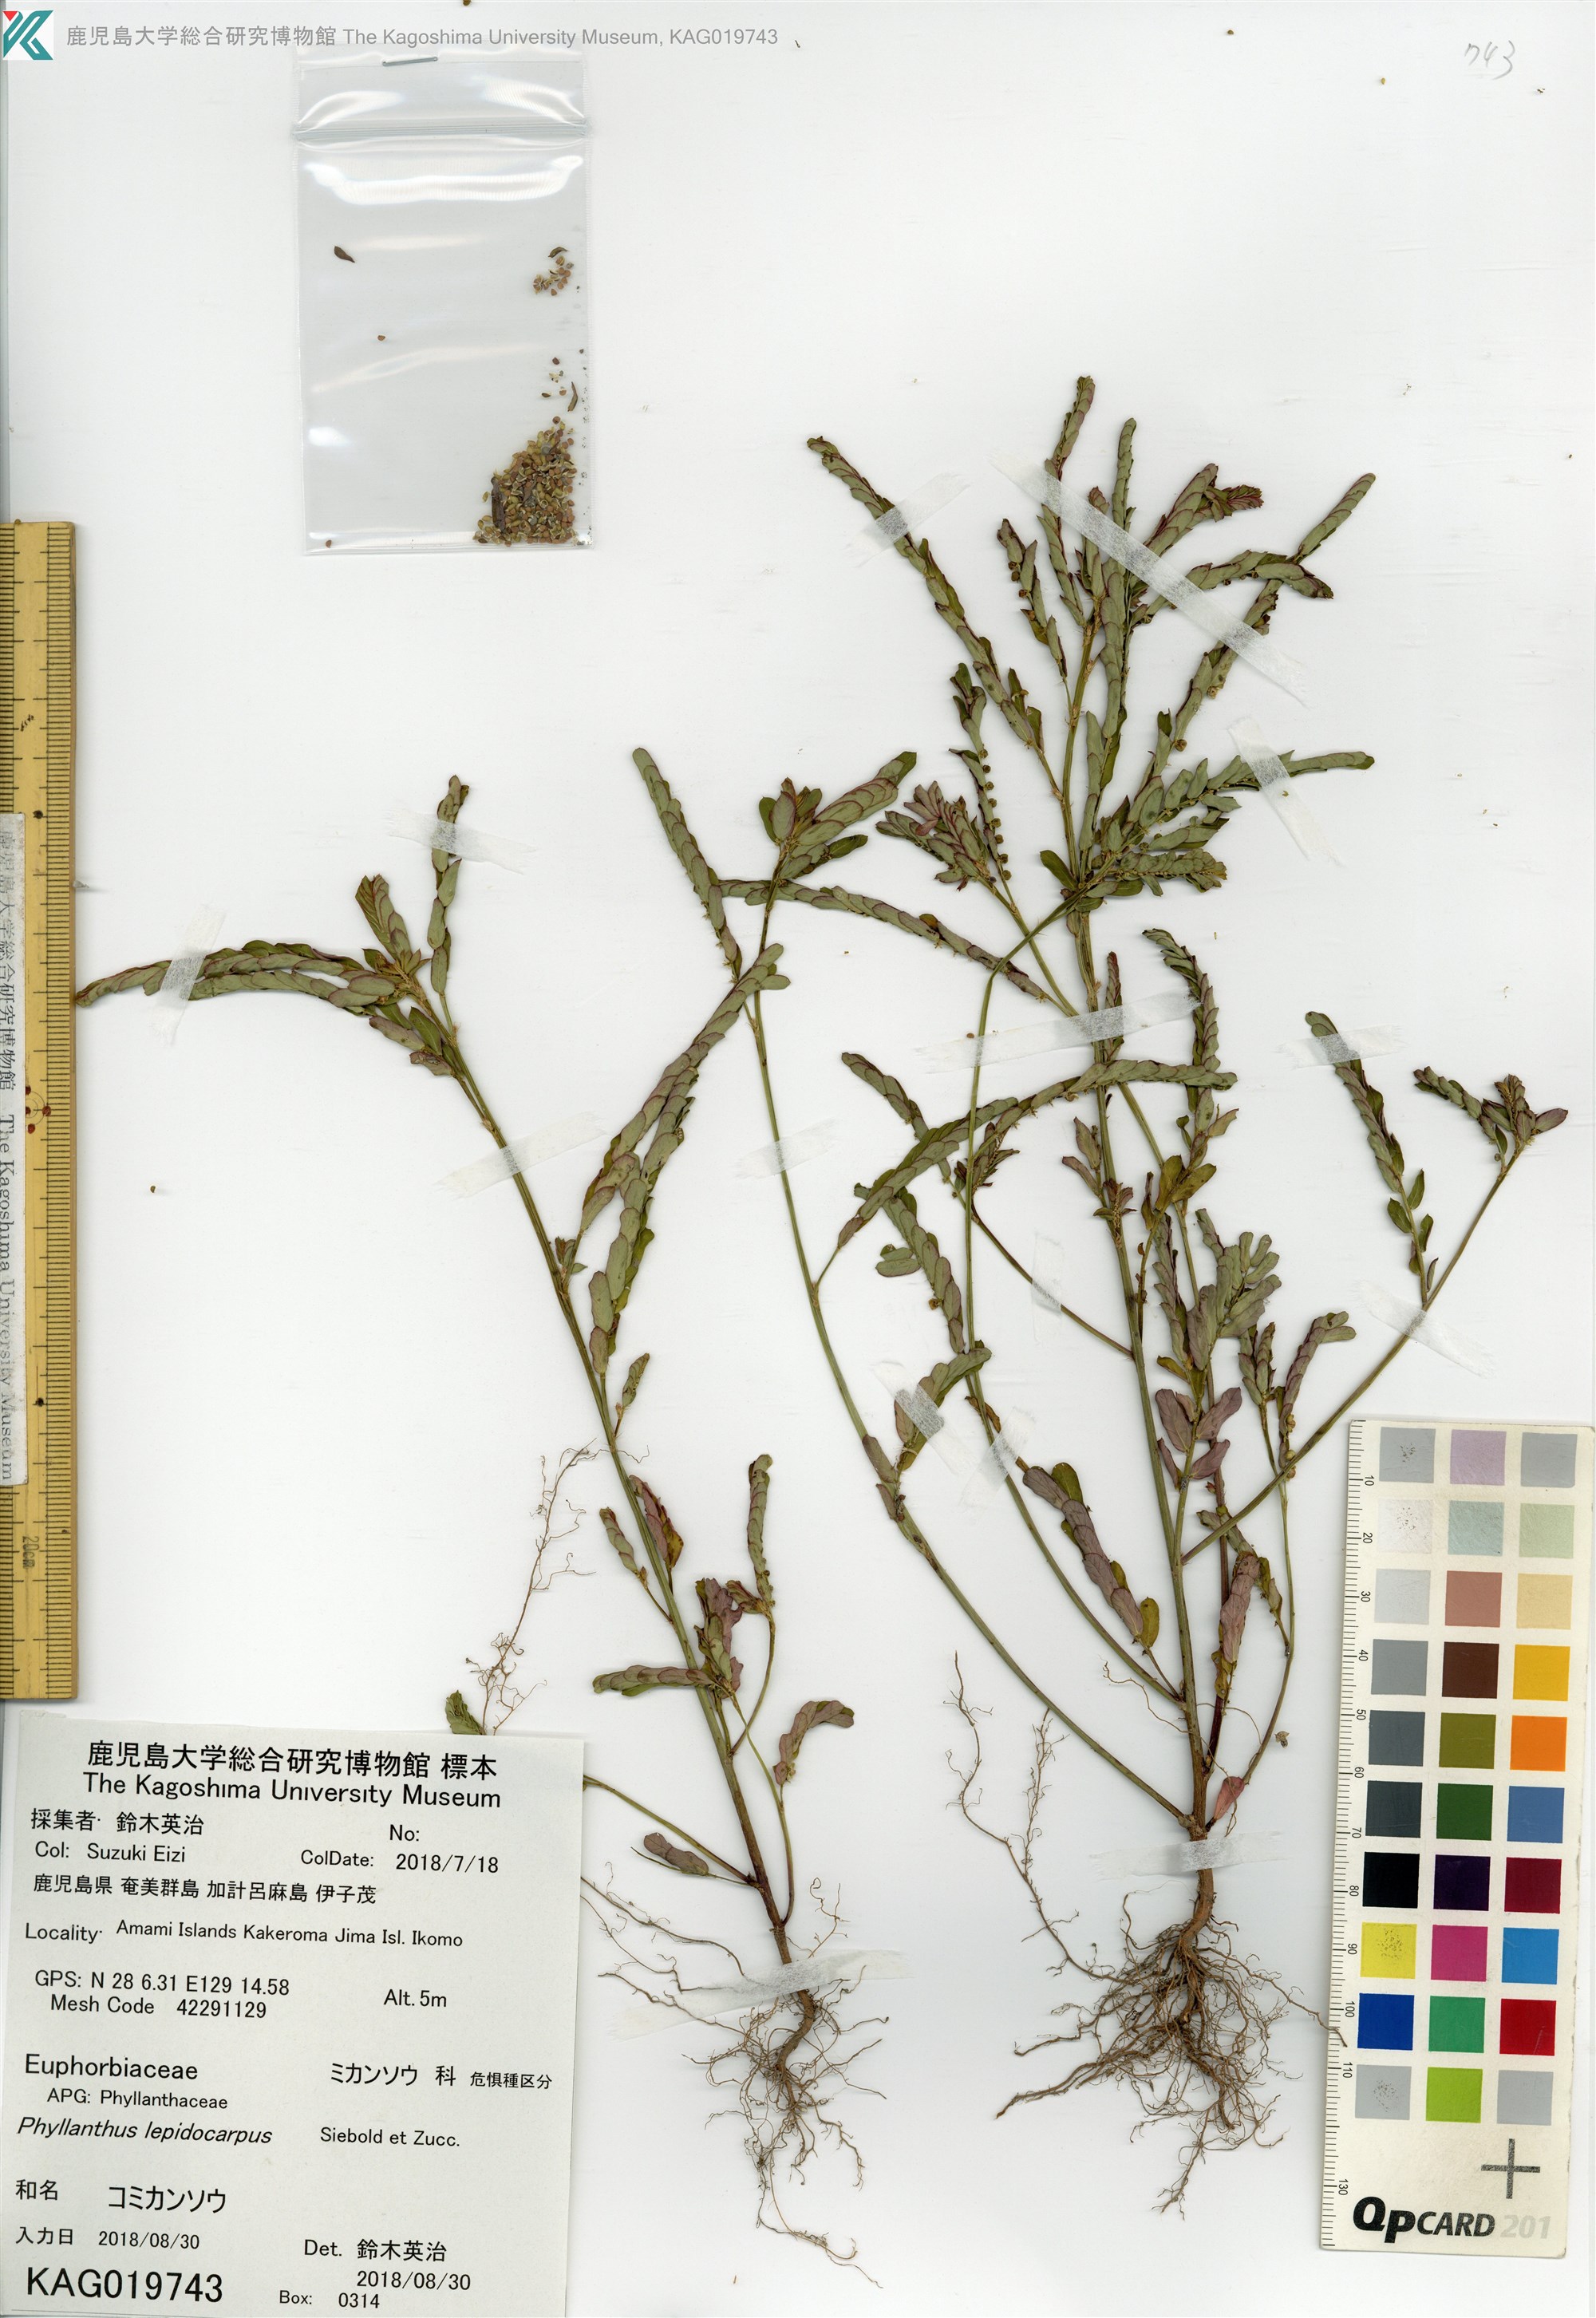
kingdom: Plantae
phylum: Tracheophyta
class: Magnoliopsida
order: Malpighiales
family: Phyllanthaceae
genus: Phyllanthus
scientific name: Phyllanthus urinaria
